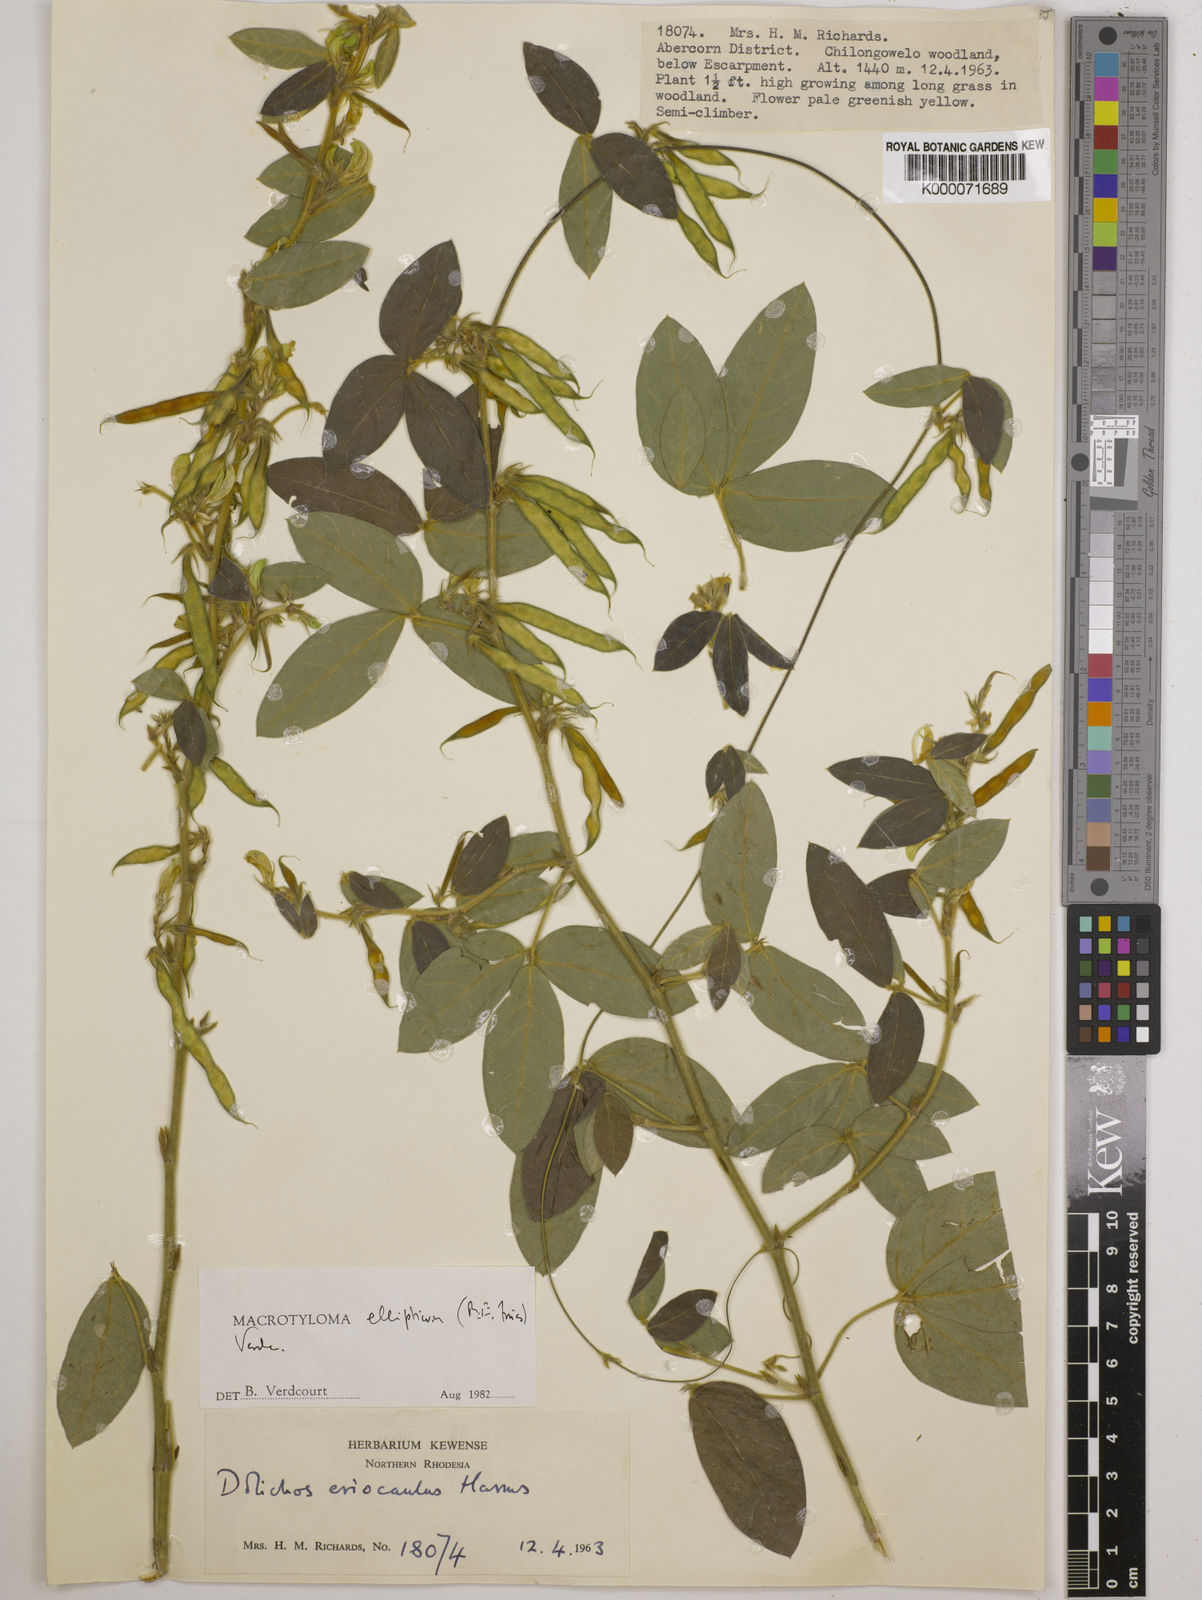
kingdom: Plantae
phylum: Tracheophyta
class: Magnoliopsida
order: Fabales
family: Fabaceae
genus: Macrotyloma
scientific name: Macrotyloma ellipticum
